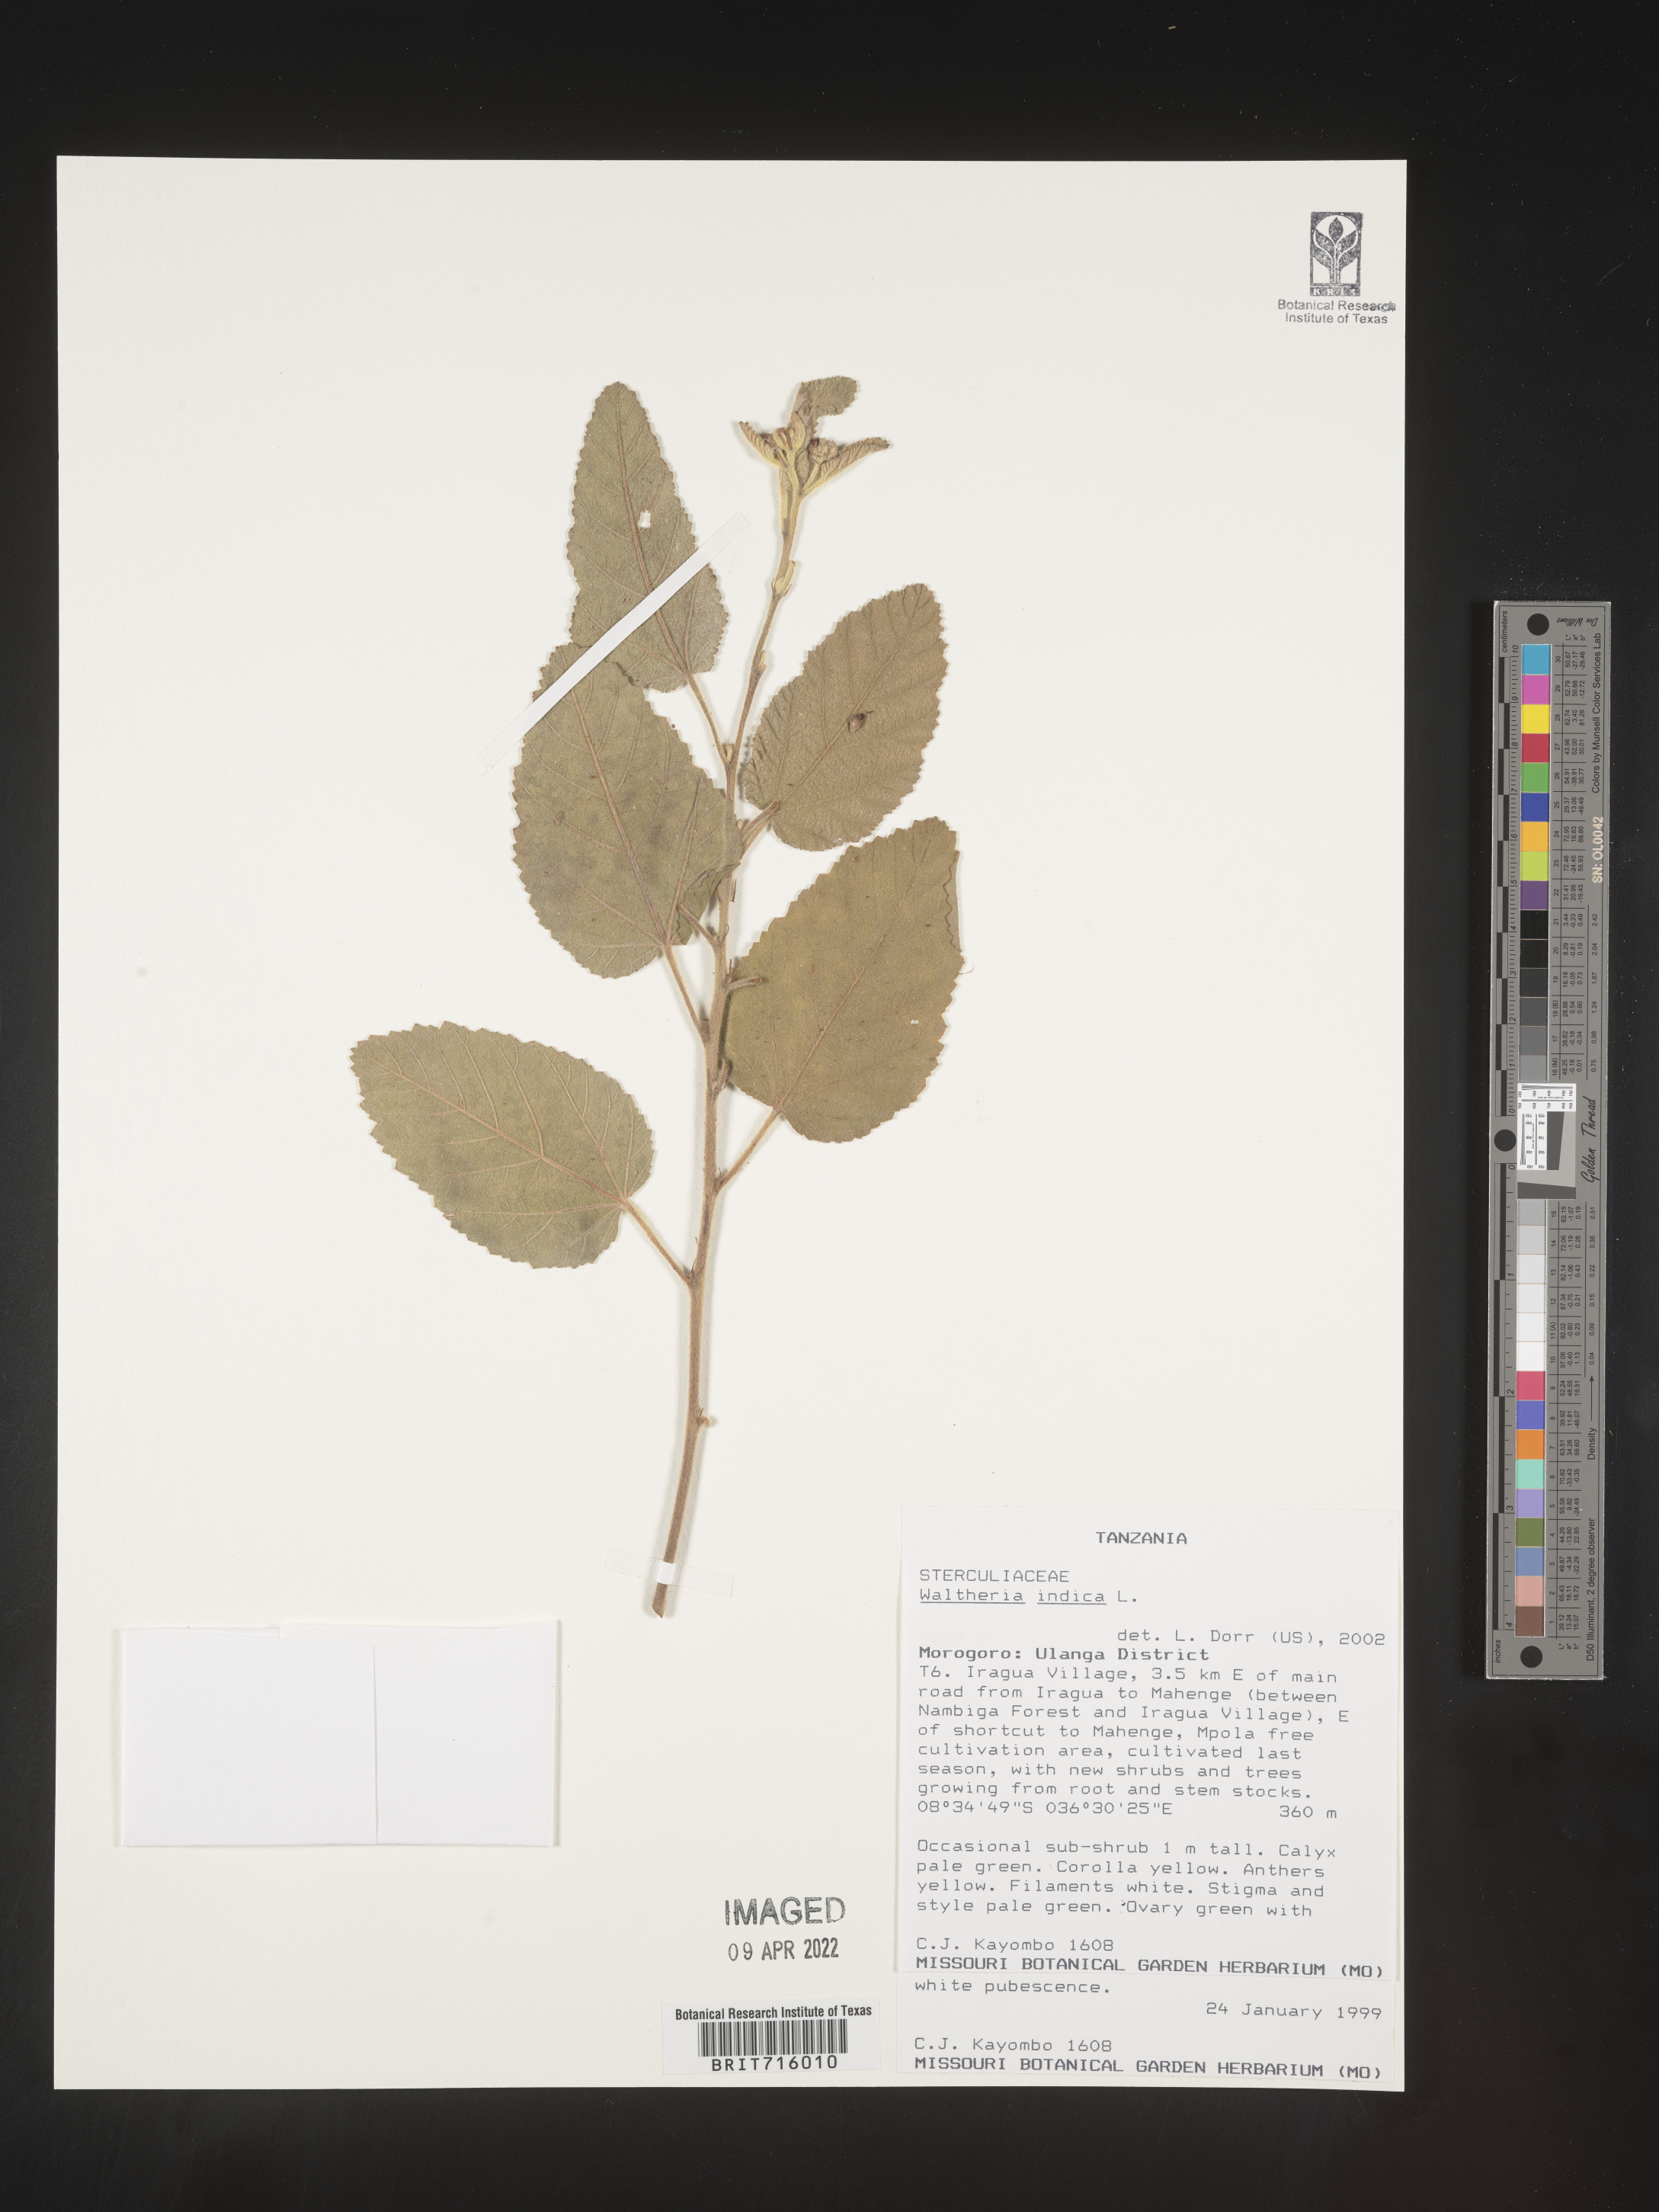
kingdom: Plantae
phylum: Tracheophyta
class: Magnoliopsida
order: Malvales
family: Malvaceae
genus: Waltheria
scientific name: Waltheria
